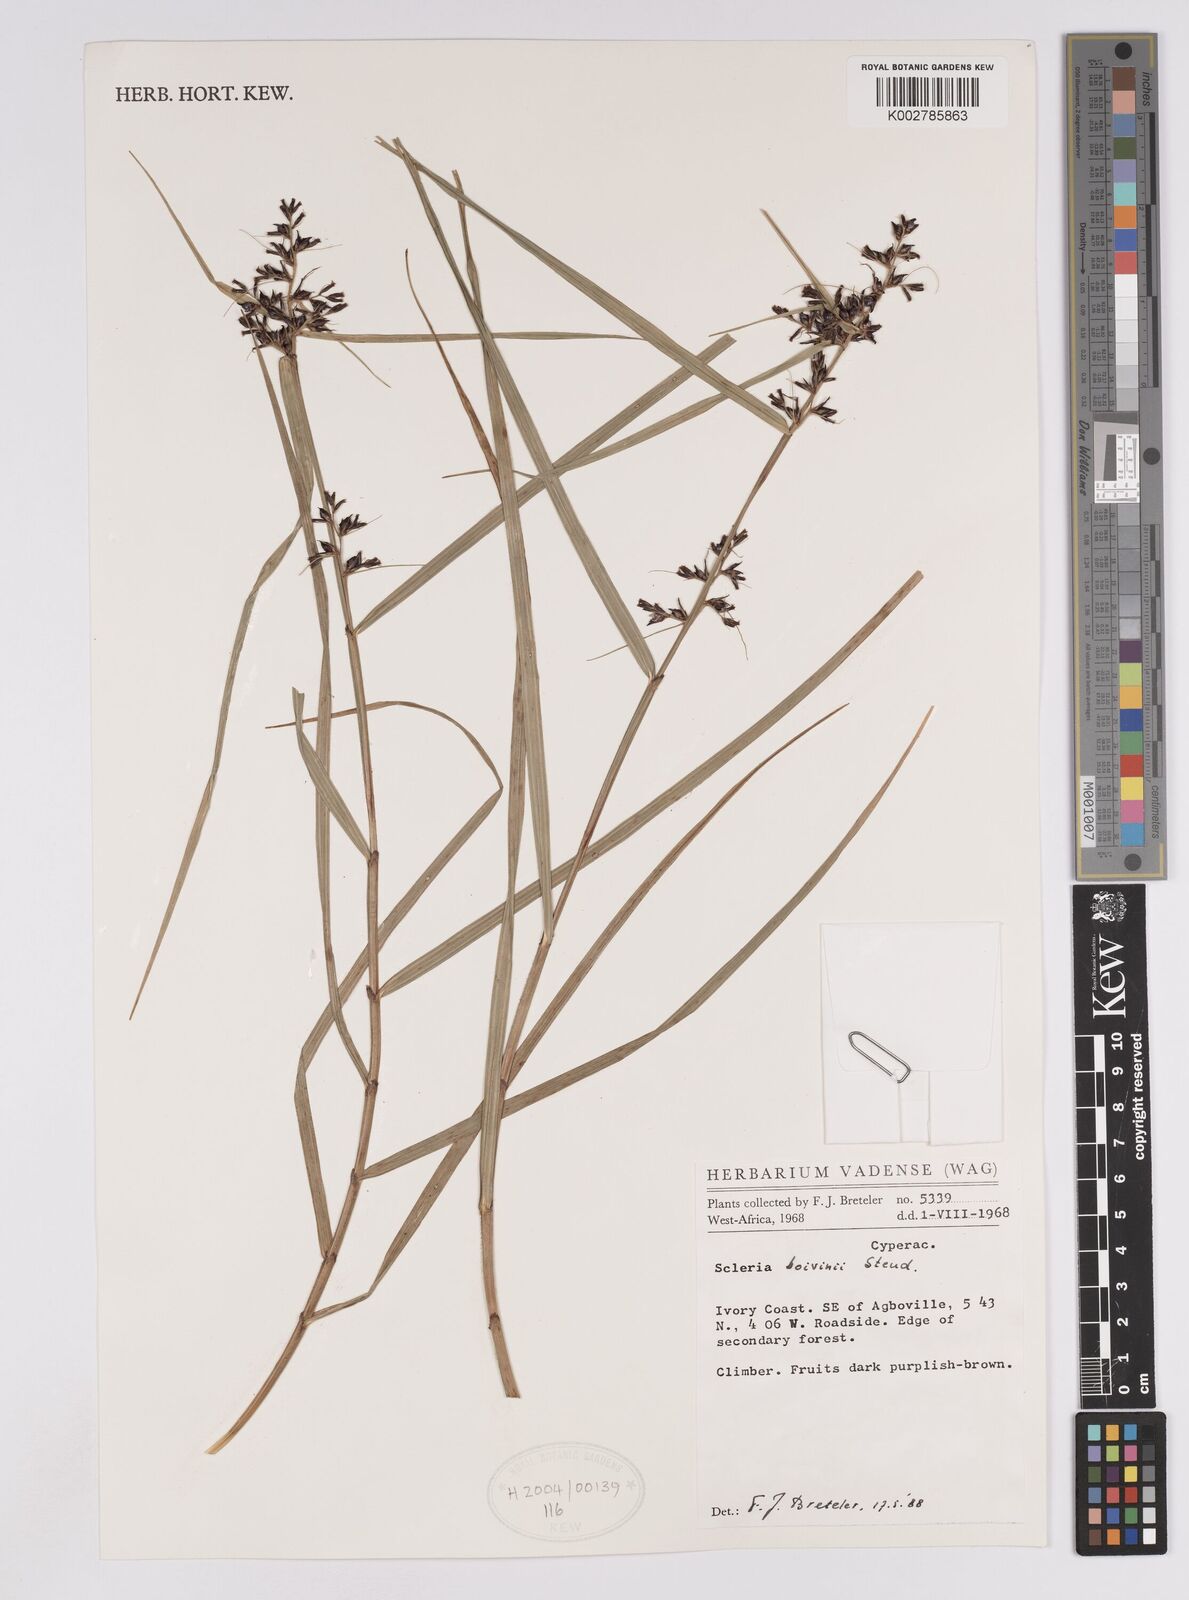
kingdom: Plantae
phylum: Tracheophyta
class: Liliopsida
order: Poales
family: Cyperaceae
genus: Scleria
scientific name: Scleria boivinii
